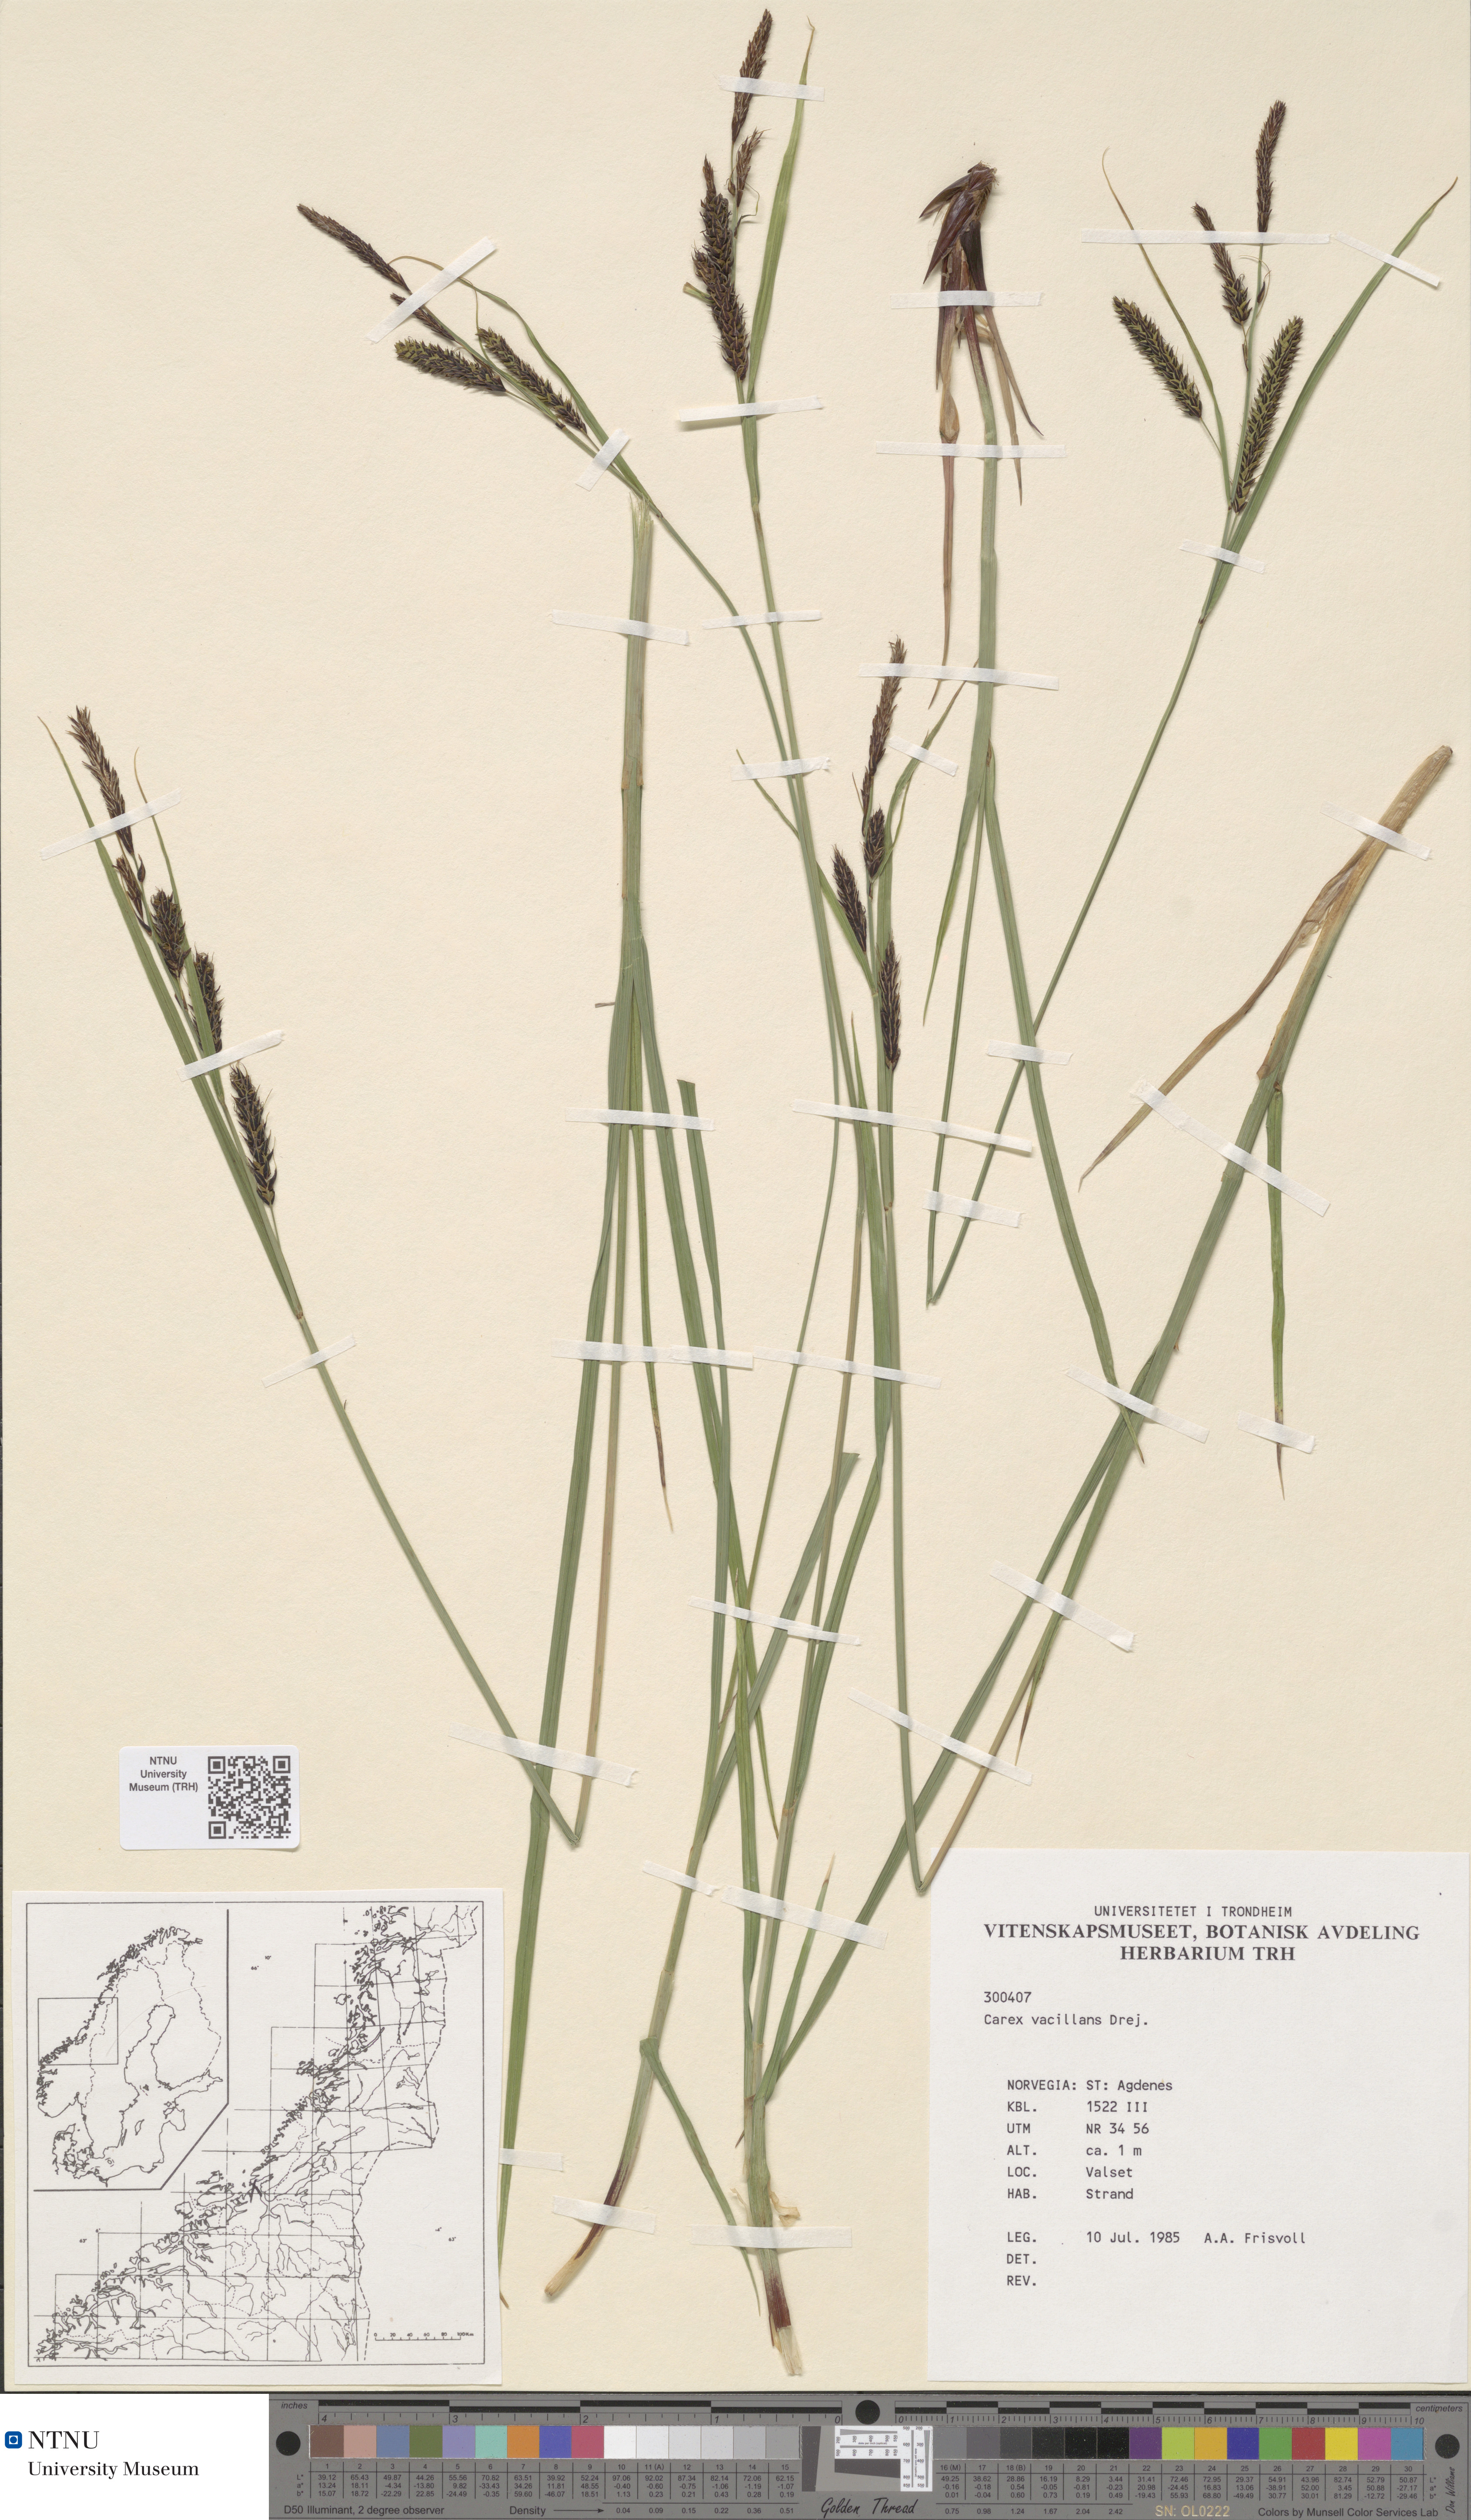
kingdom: Plantae
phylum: Tracheophyta
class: Liliopsida
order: Poales
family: Cyperaceae
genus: Carex
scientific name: Carex vacillans
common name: Sedge
